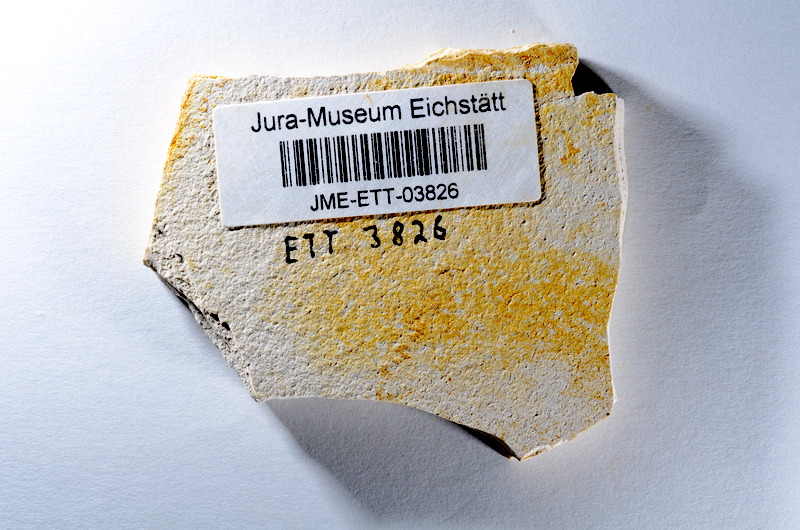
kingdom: Animalia
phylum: Chordata
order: Salmoniformes
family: Orthogonikleithridae
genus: Orthogonikleithrus
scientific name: Orthogonikleithrus hoelli
